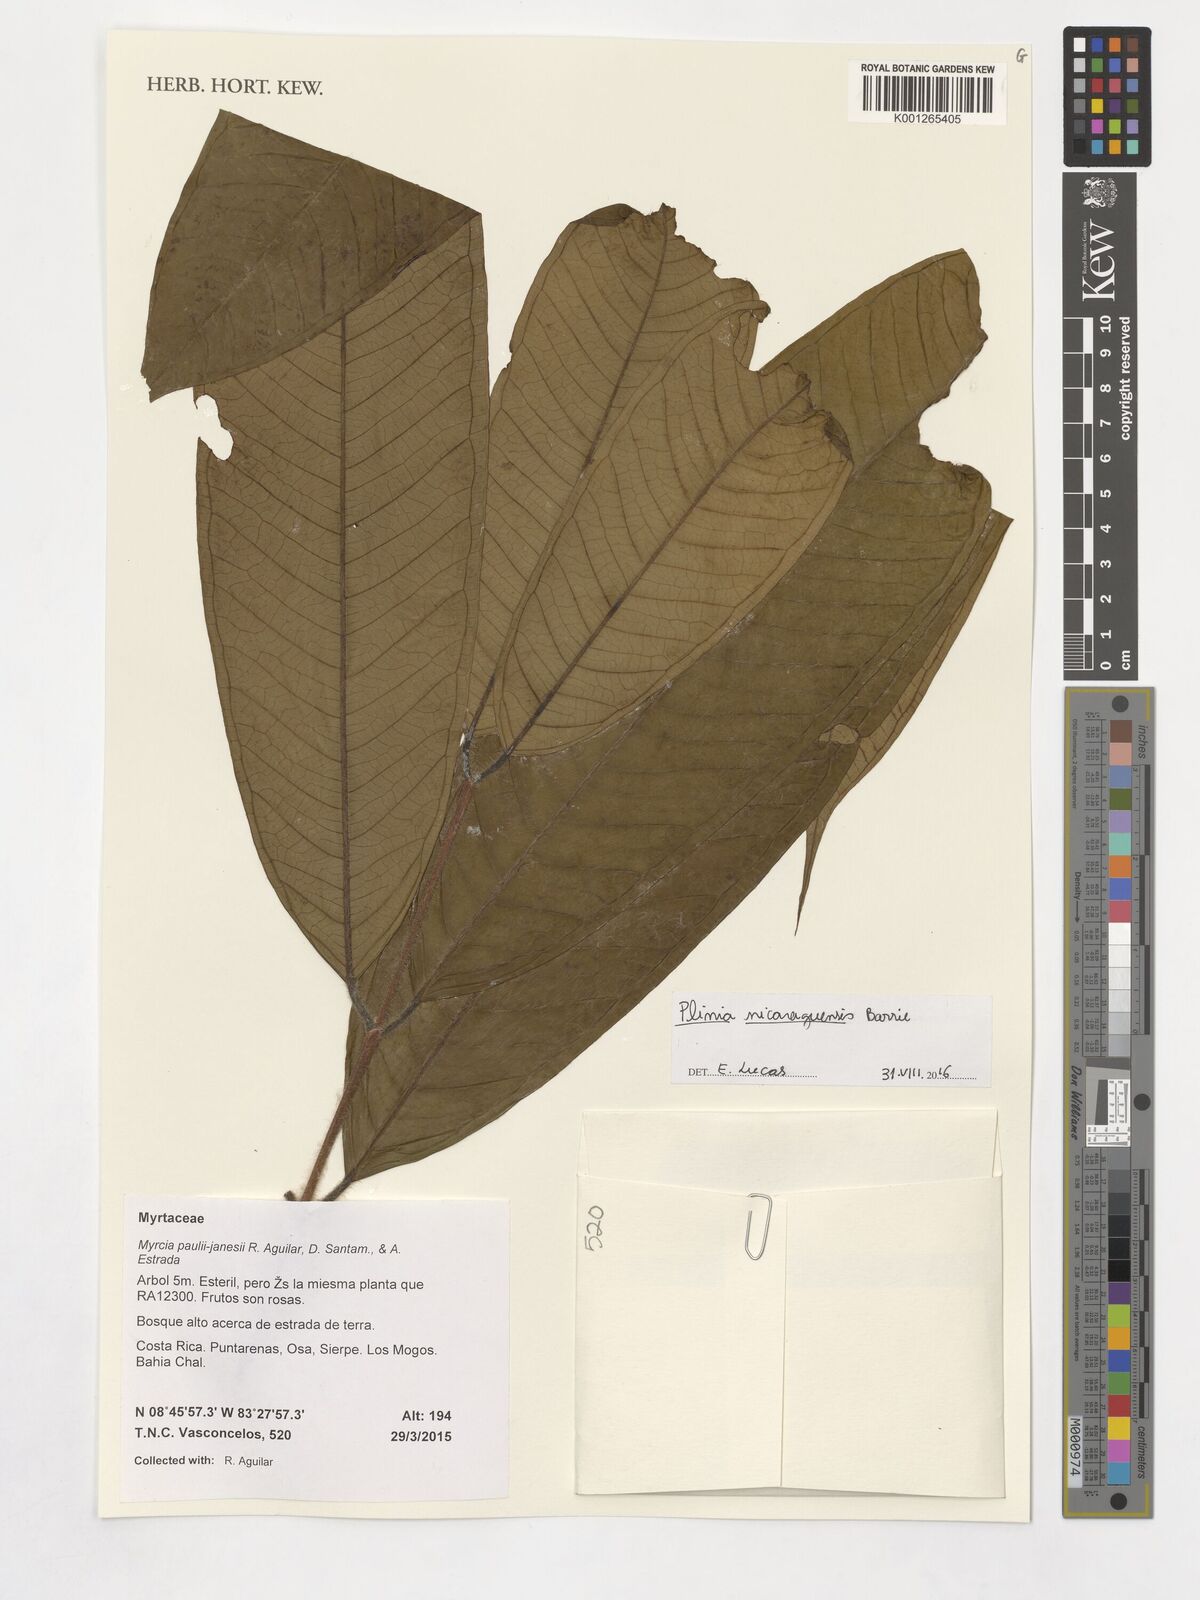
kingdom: Plantae
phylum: Tracheophyta
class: Magnoliopsida
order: Myrtales
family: Myrtaceae
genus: Plinia
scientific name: Plinia nicaraguensis
